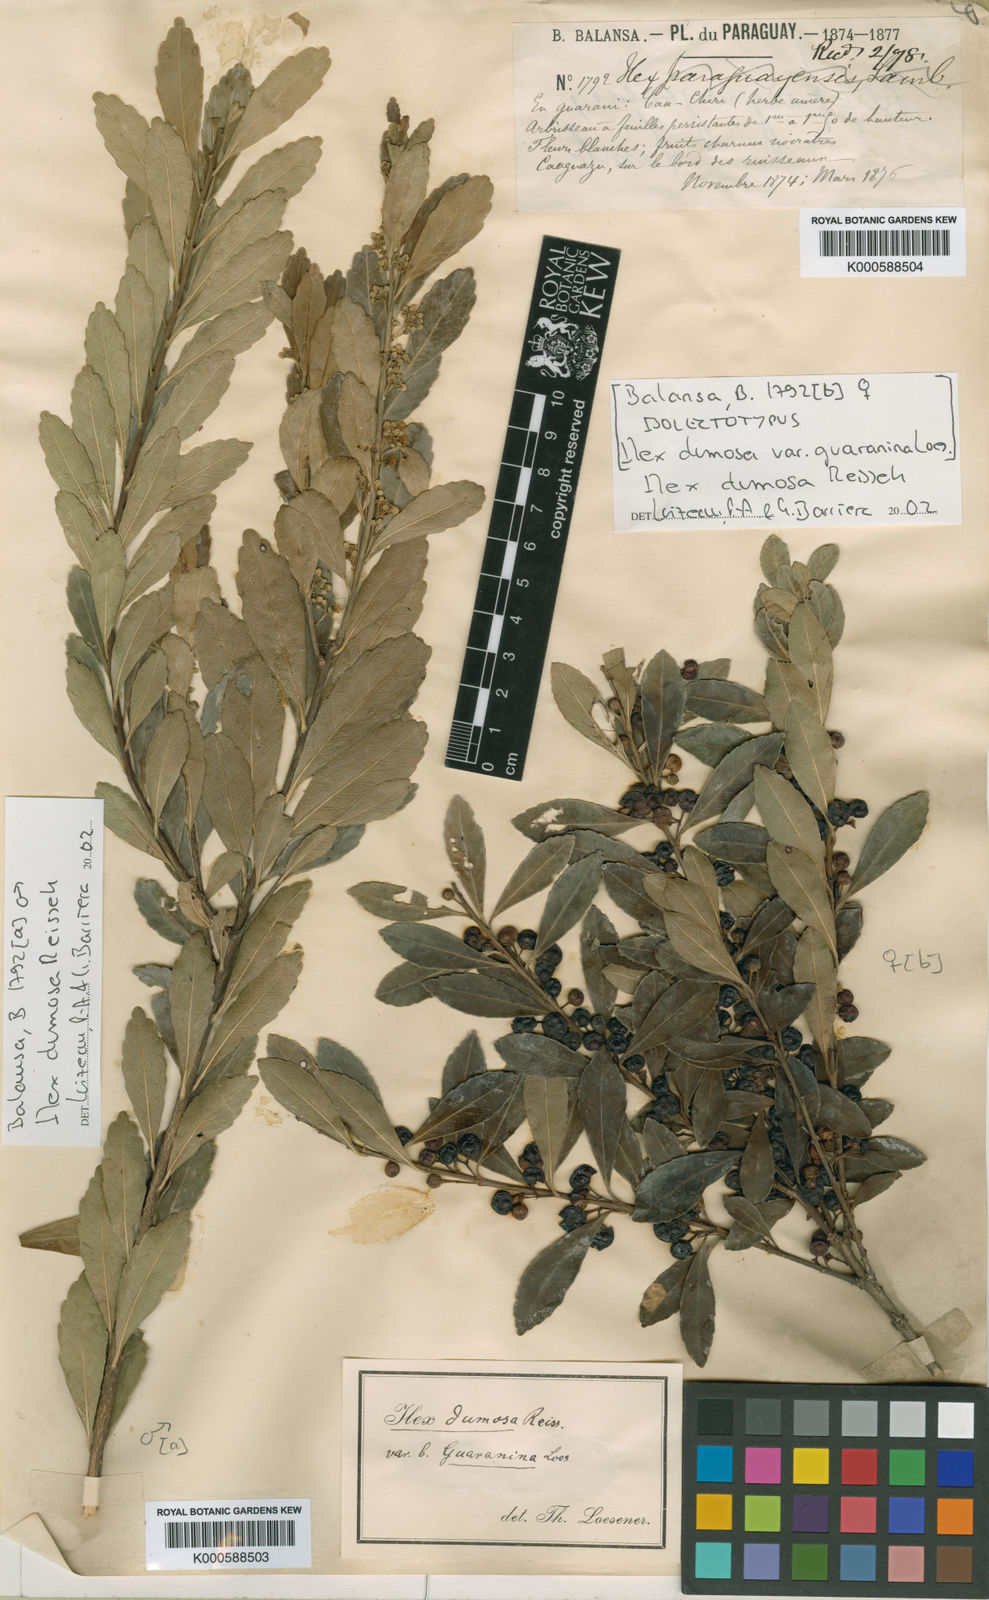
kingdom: Plantae
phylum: Tracheophyta
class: Magnoliopsida
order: Aquifoliales
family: Aquifoliaceae
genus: Ilex
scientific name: Ilex dumosa
